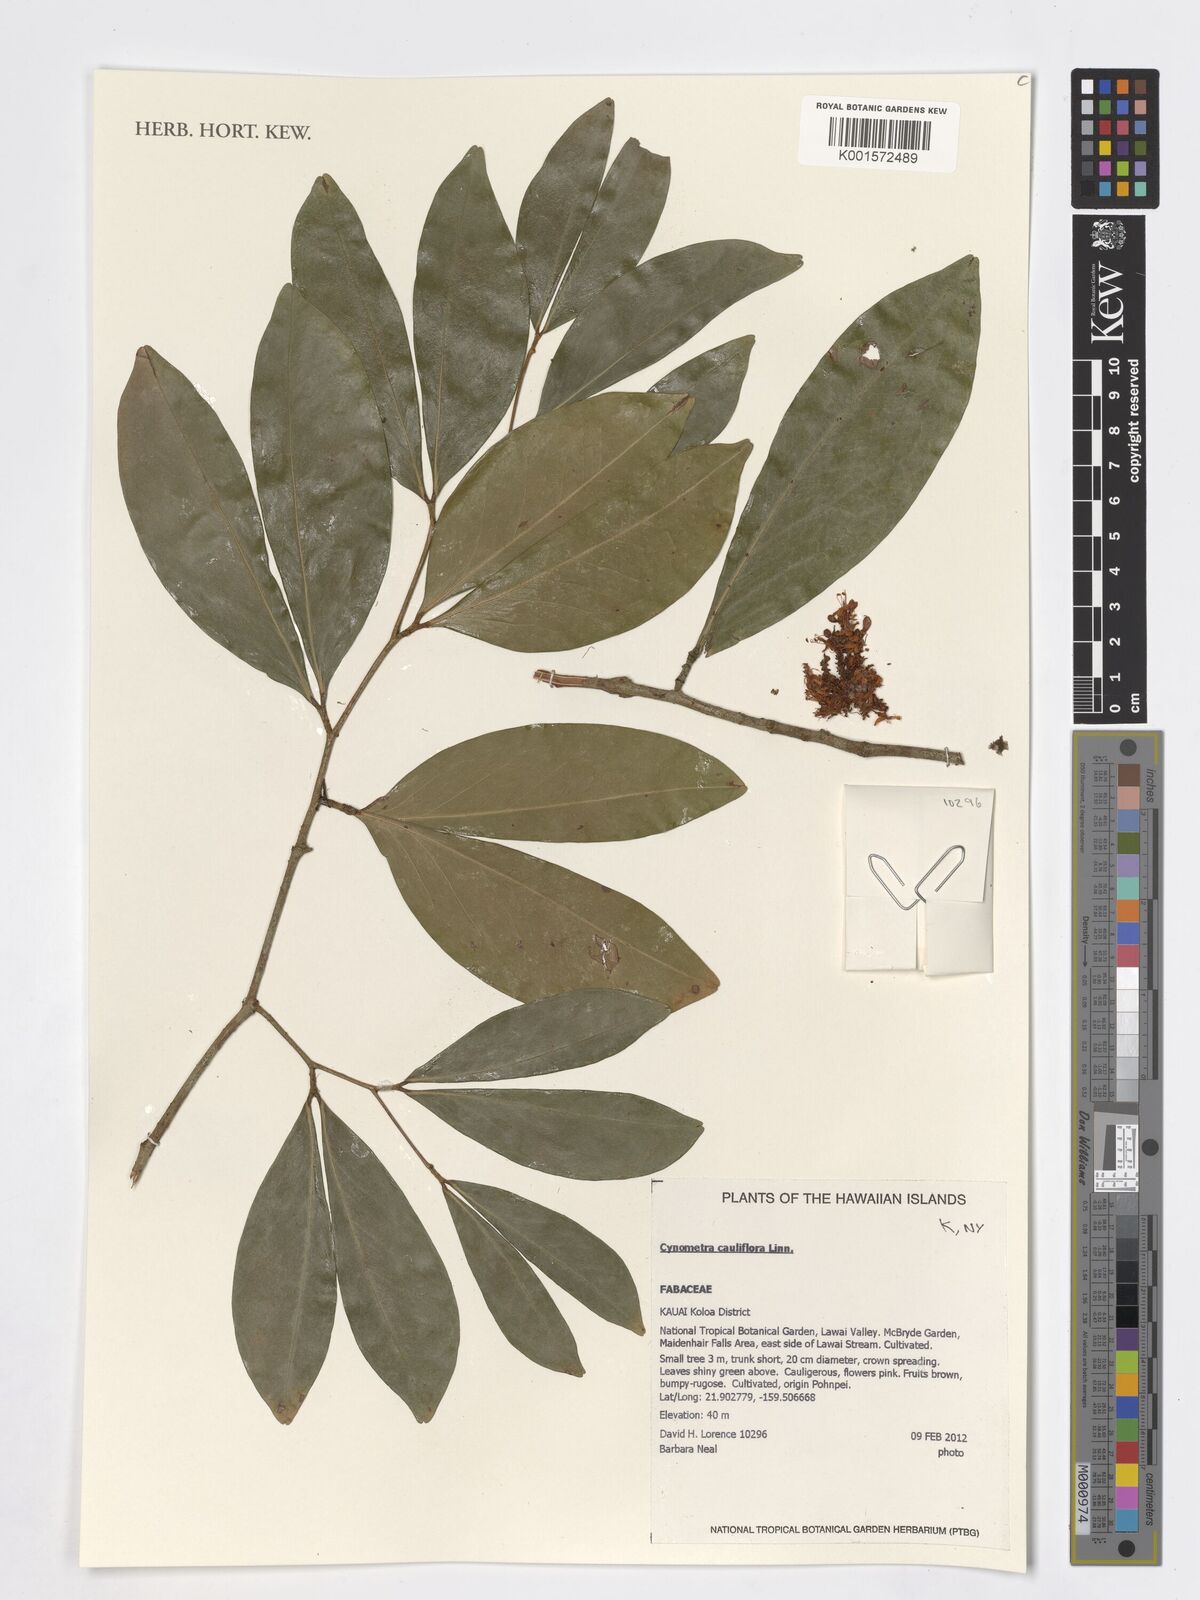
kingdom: Plantae
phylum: Tracheophyta
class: Magnoliopsida
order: Fabales
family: Fabaceae
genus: Cynometra
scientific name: Cynometra cauliflora
